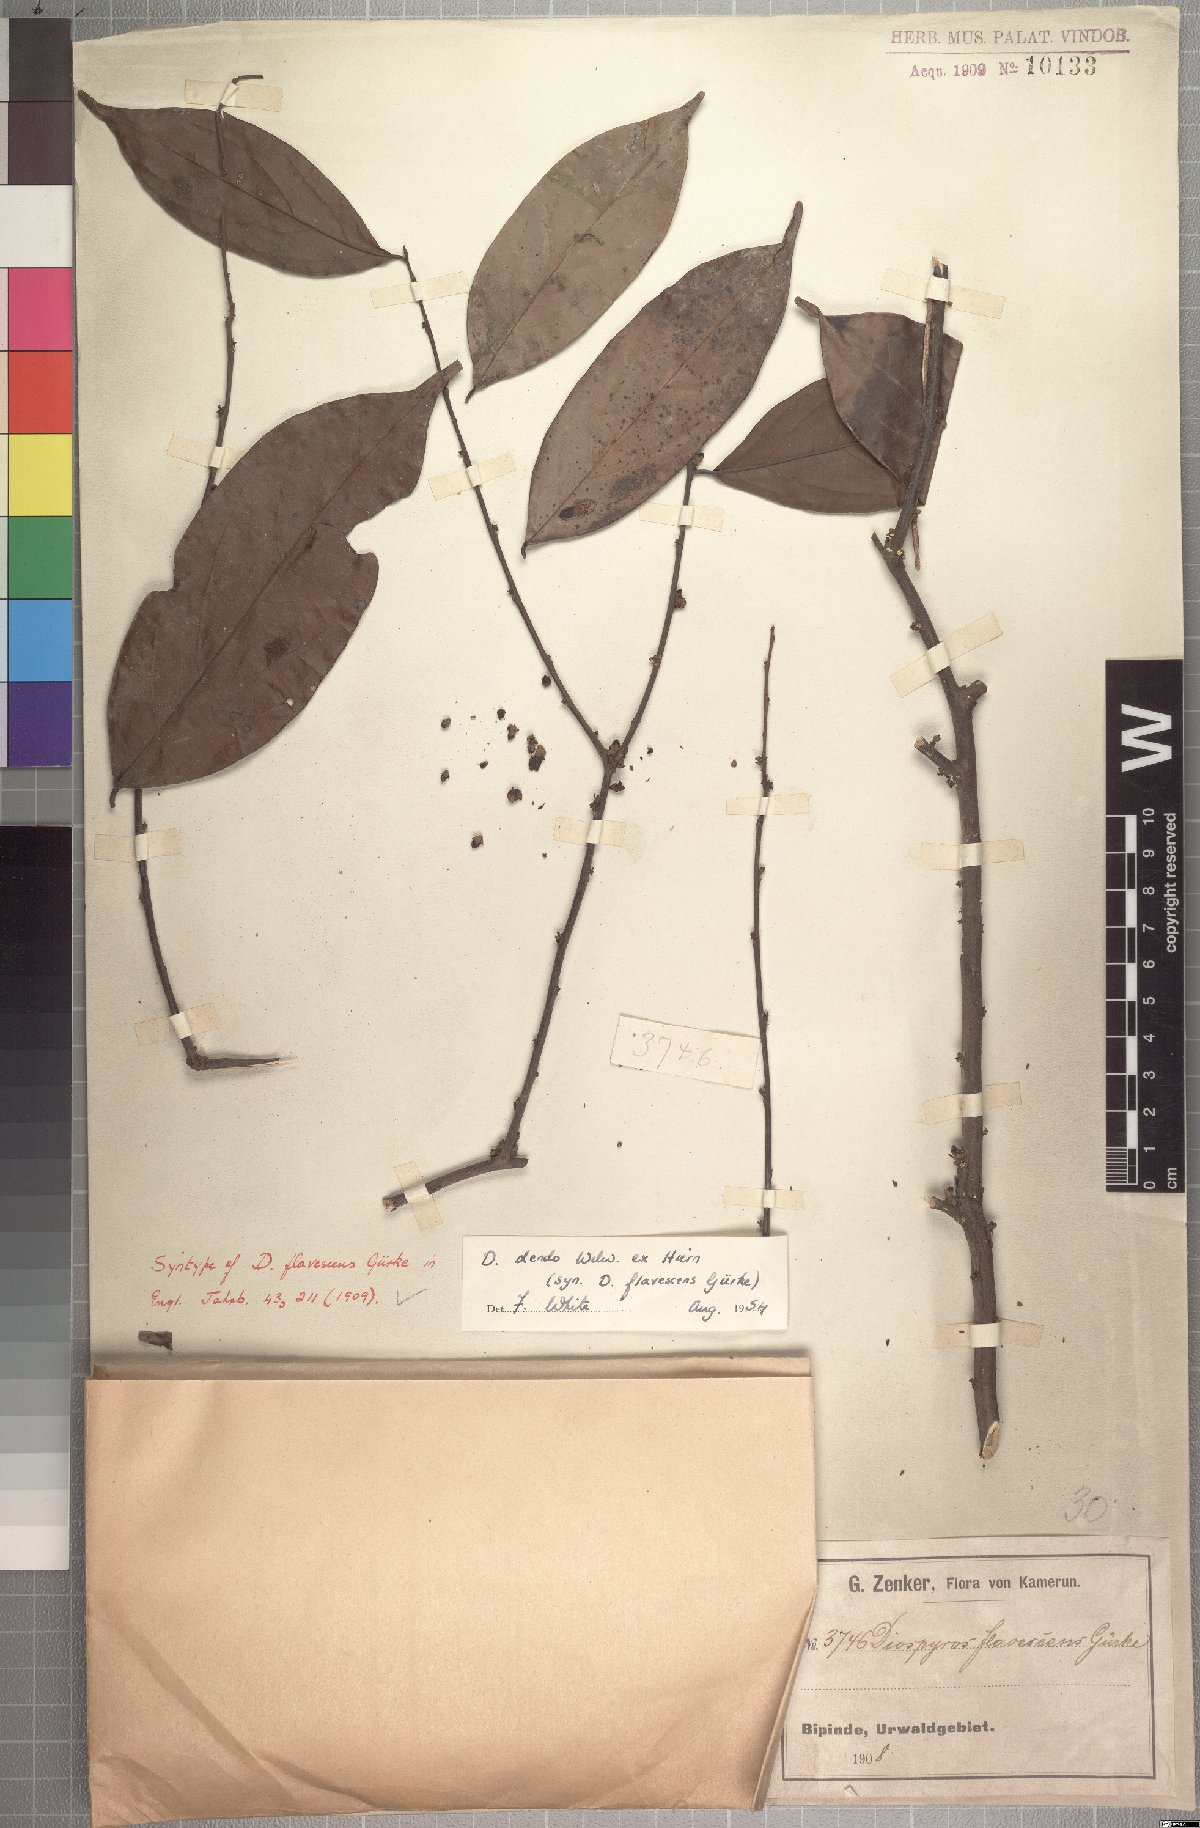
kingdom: Plantae
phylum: Tracheophyta
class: Magnoliopsida
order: Ericales
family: Ebenaceae
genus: Diospyros
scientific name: Diospyros dendo
